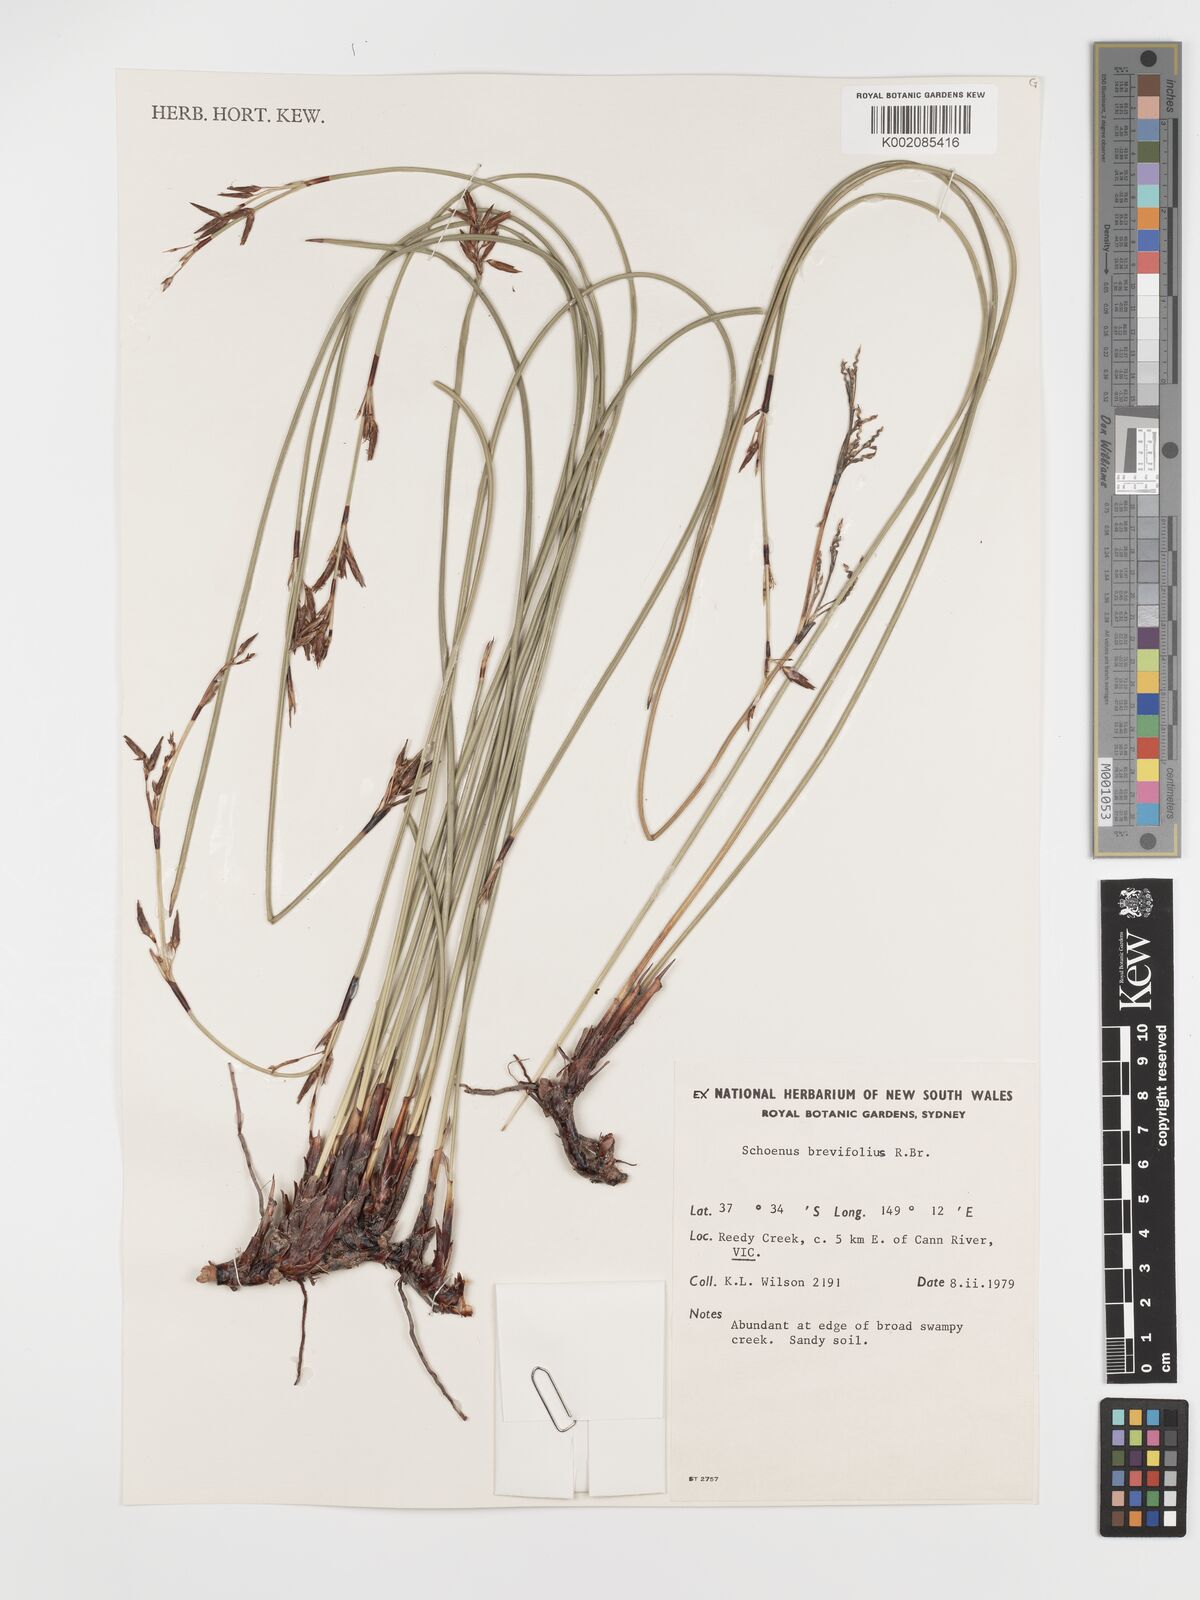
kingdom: Plantae
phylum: Tracheophyta
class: Liliopsida
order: Poales
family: Cyperaceae
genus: Schoenus
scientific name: Schoenus brevifolius
